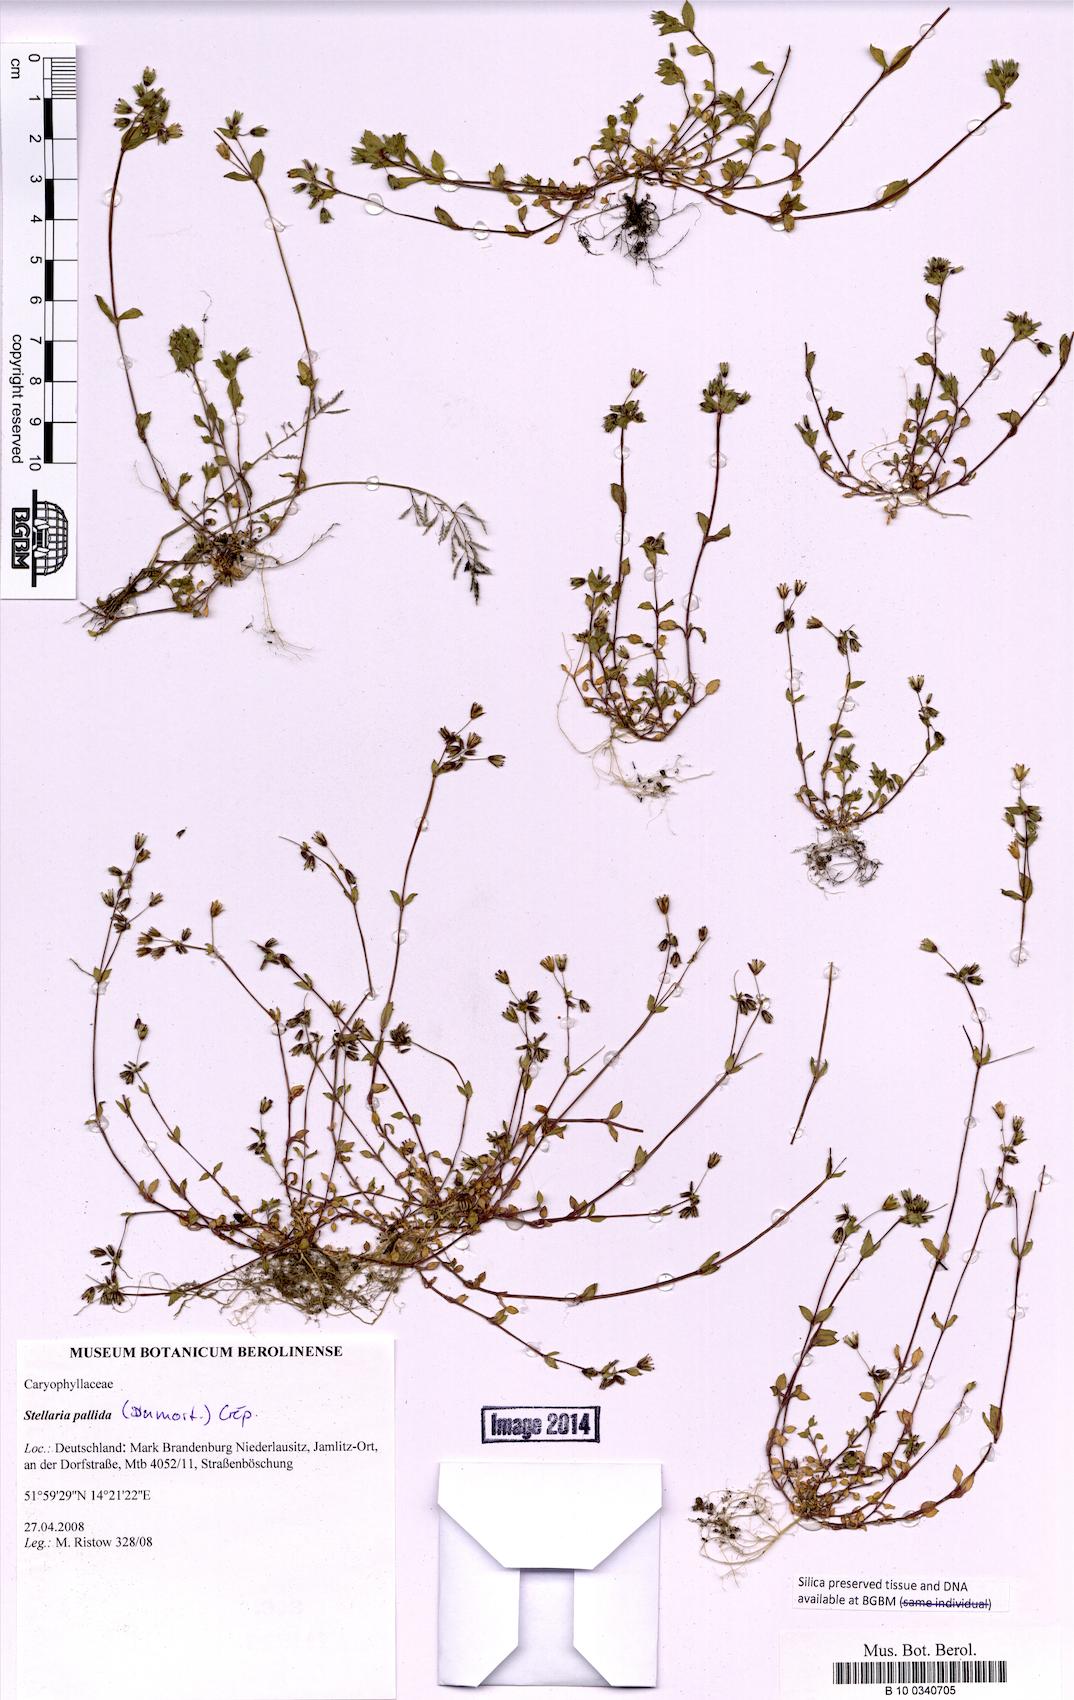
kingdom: Plantae
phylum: Tracheophyta
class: Magnoliopsida
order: Caryophyllales
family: Caryophyllaceae
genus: Stellaria
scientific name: Stellaria apetala
